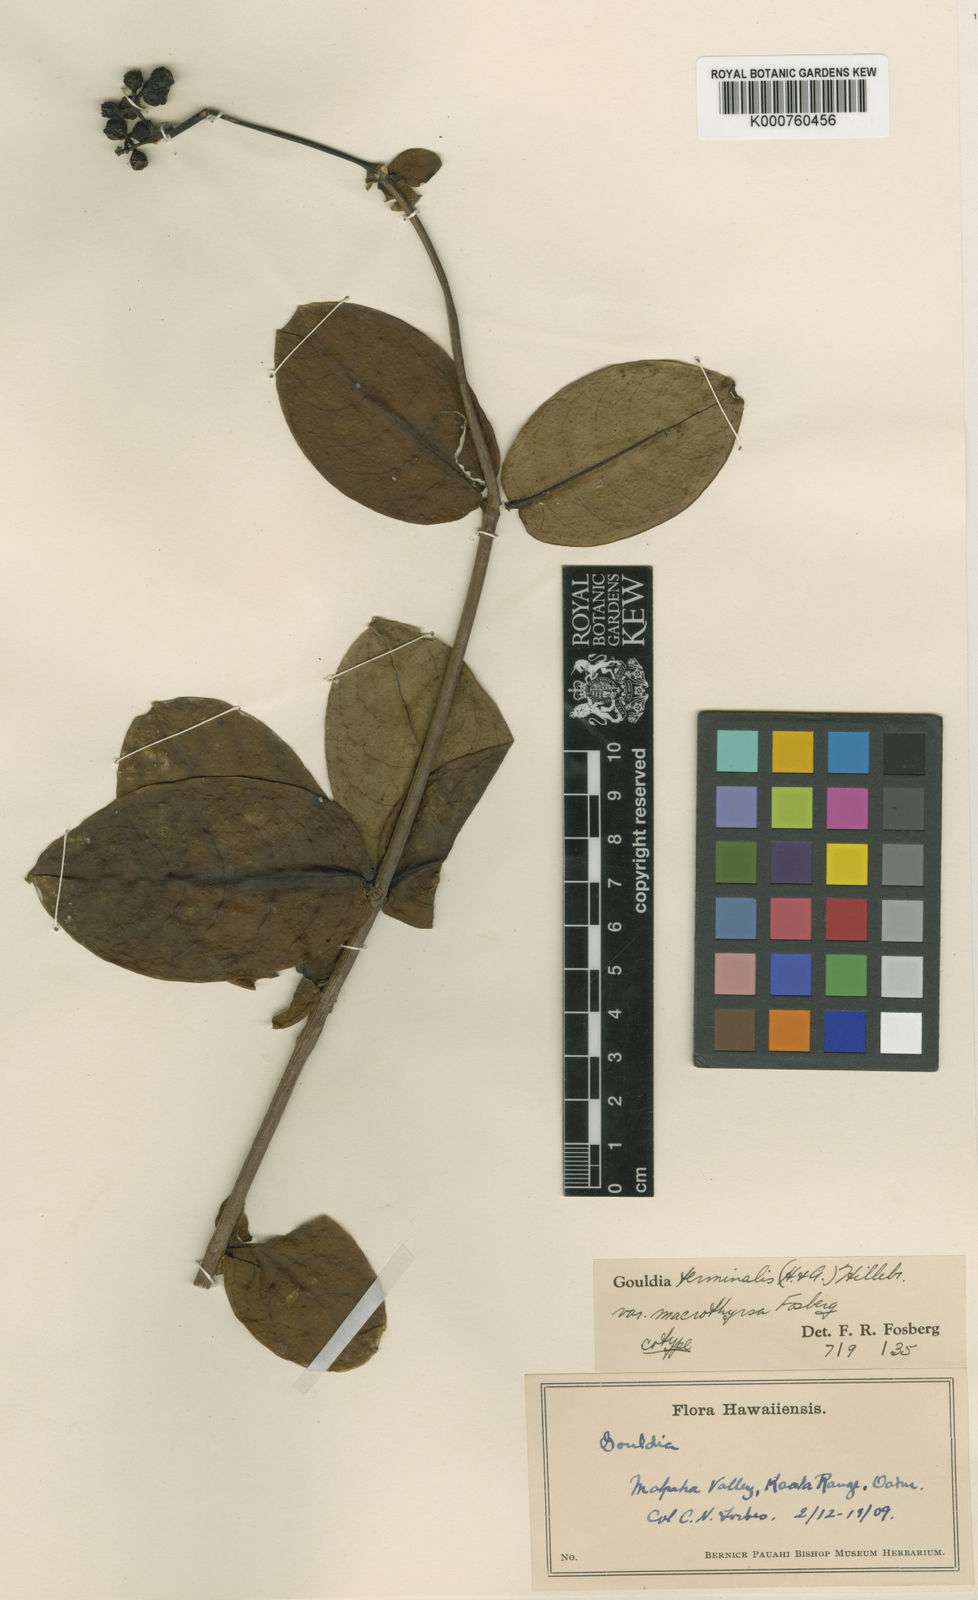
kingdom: Plantae
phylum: Tracheophyta
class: Magnoliopsida
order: Gentianales
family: Rubiaceae
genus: Kadua
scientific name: Kadua affinis
